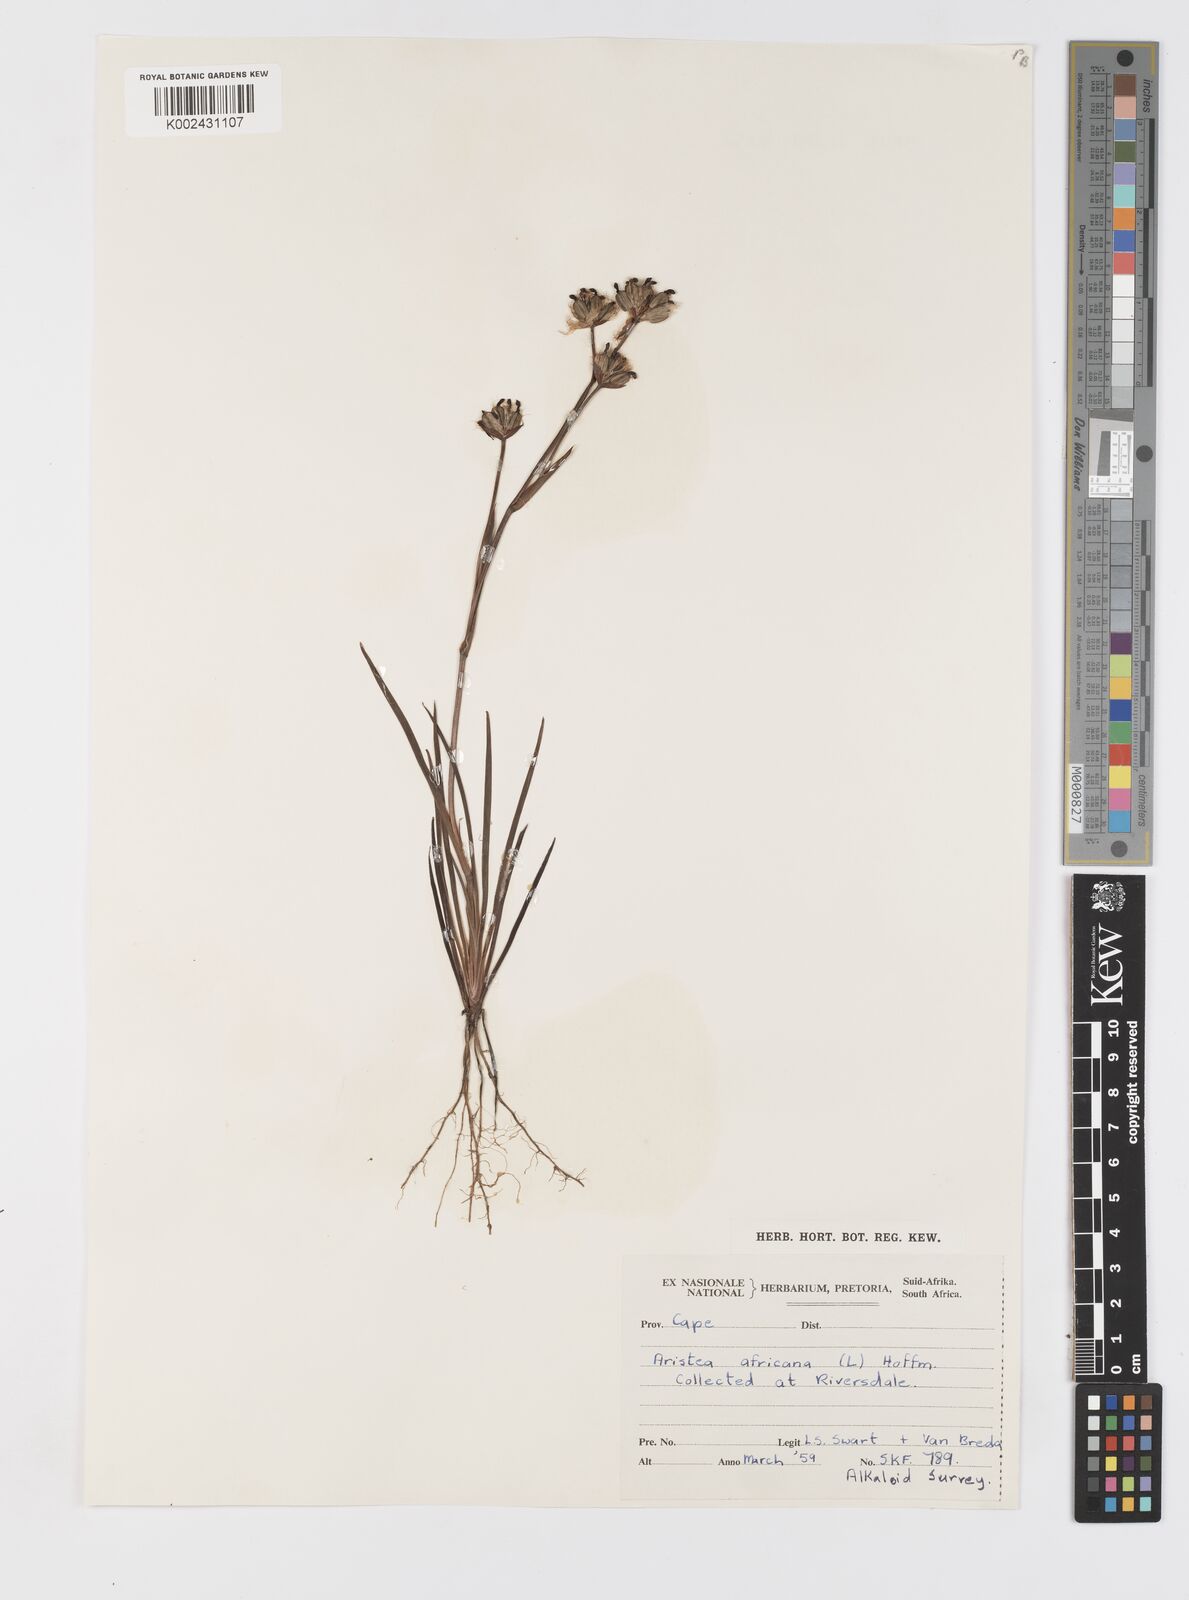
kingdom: Plantae
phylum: Tracheophyta
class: Liliopsida
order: Asparagales
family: Iridaceae
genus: Aristea
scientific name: Aristea africana
